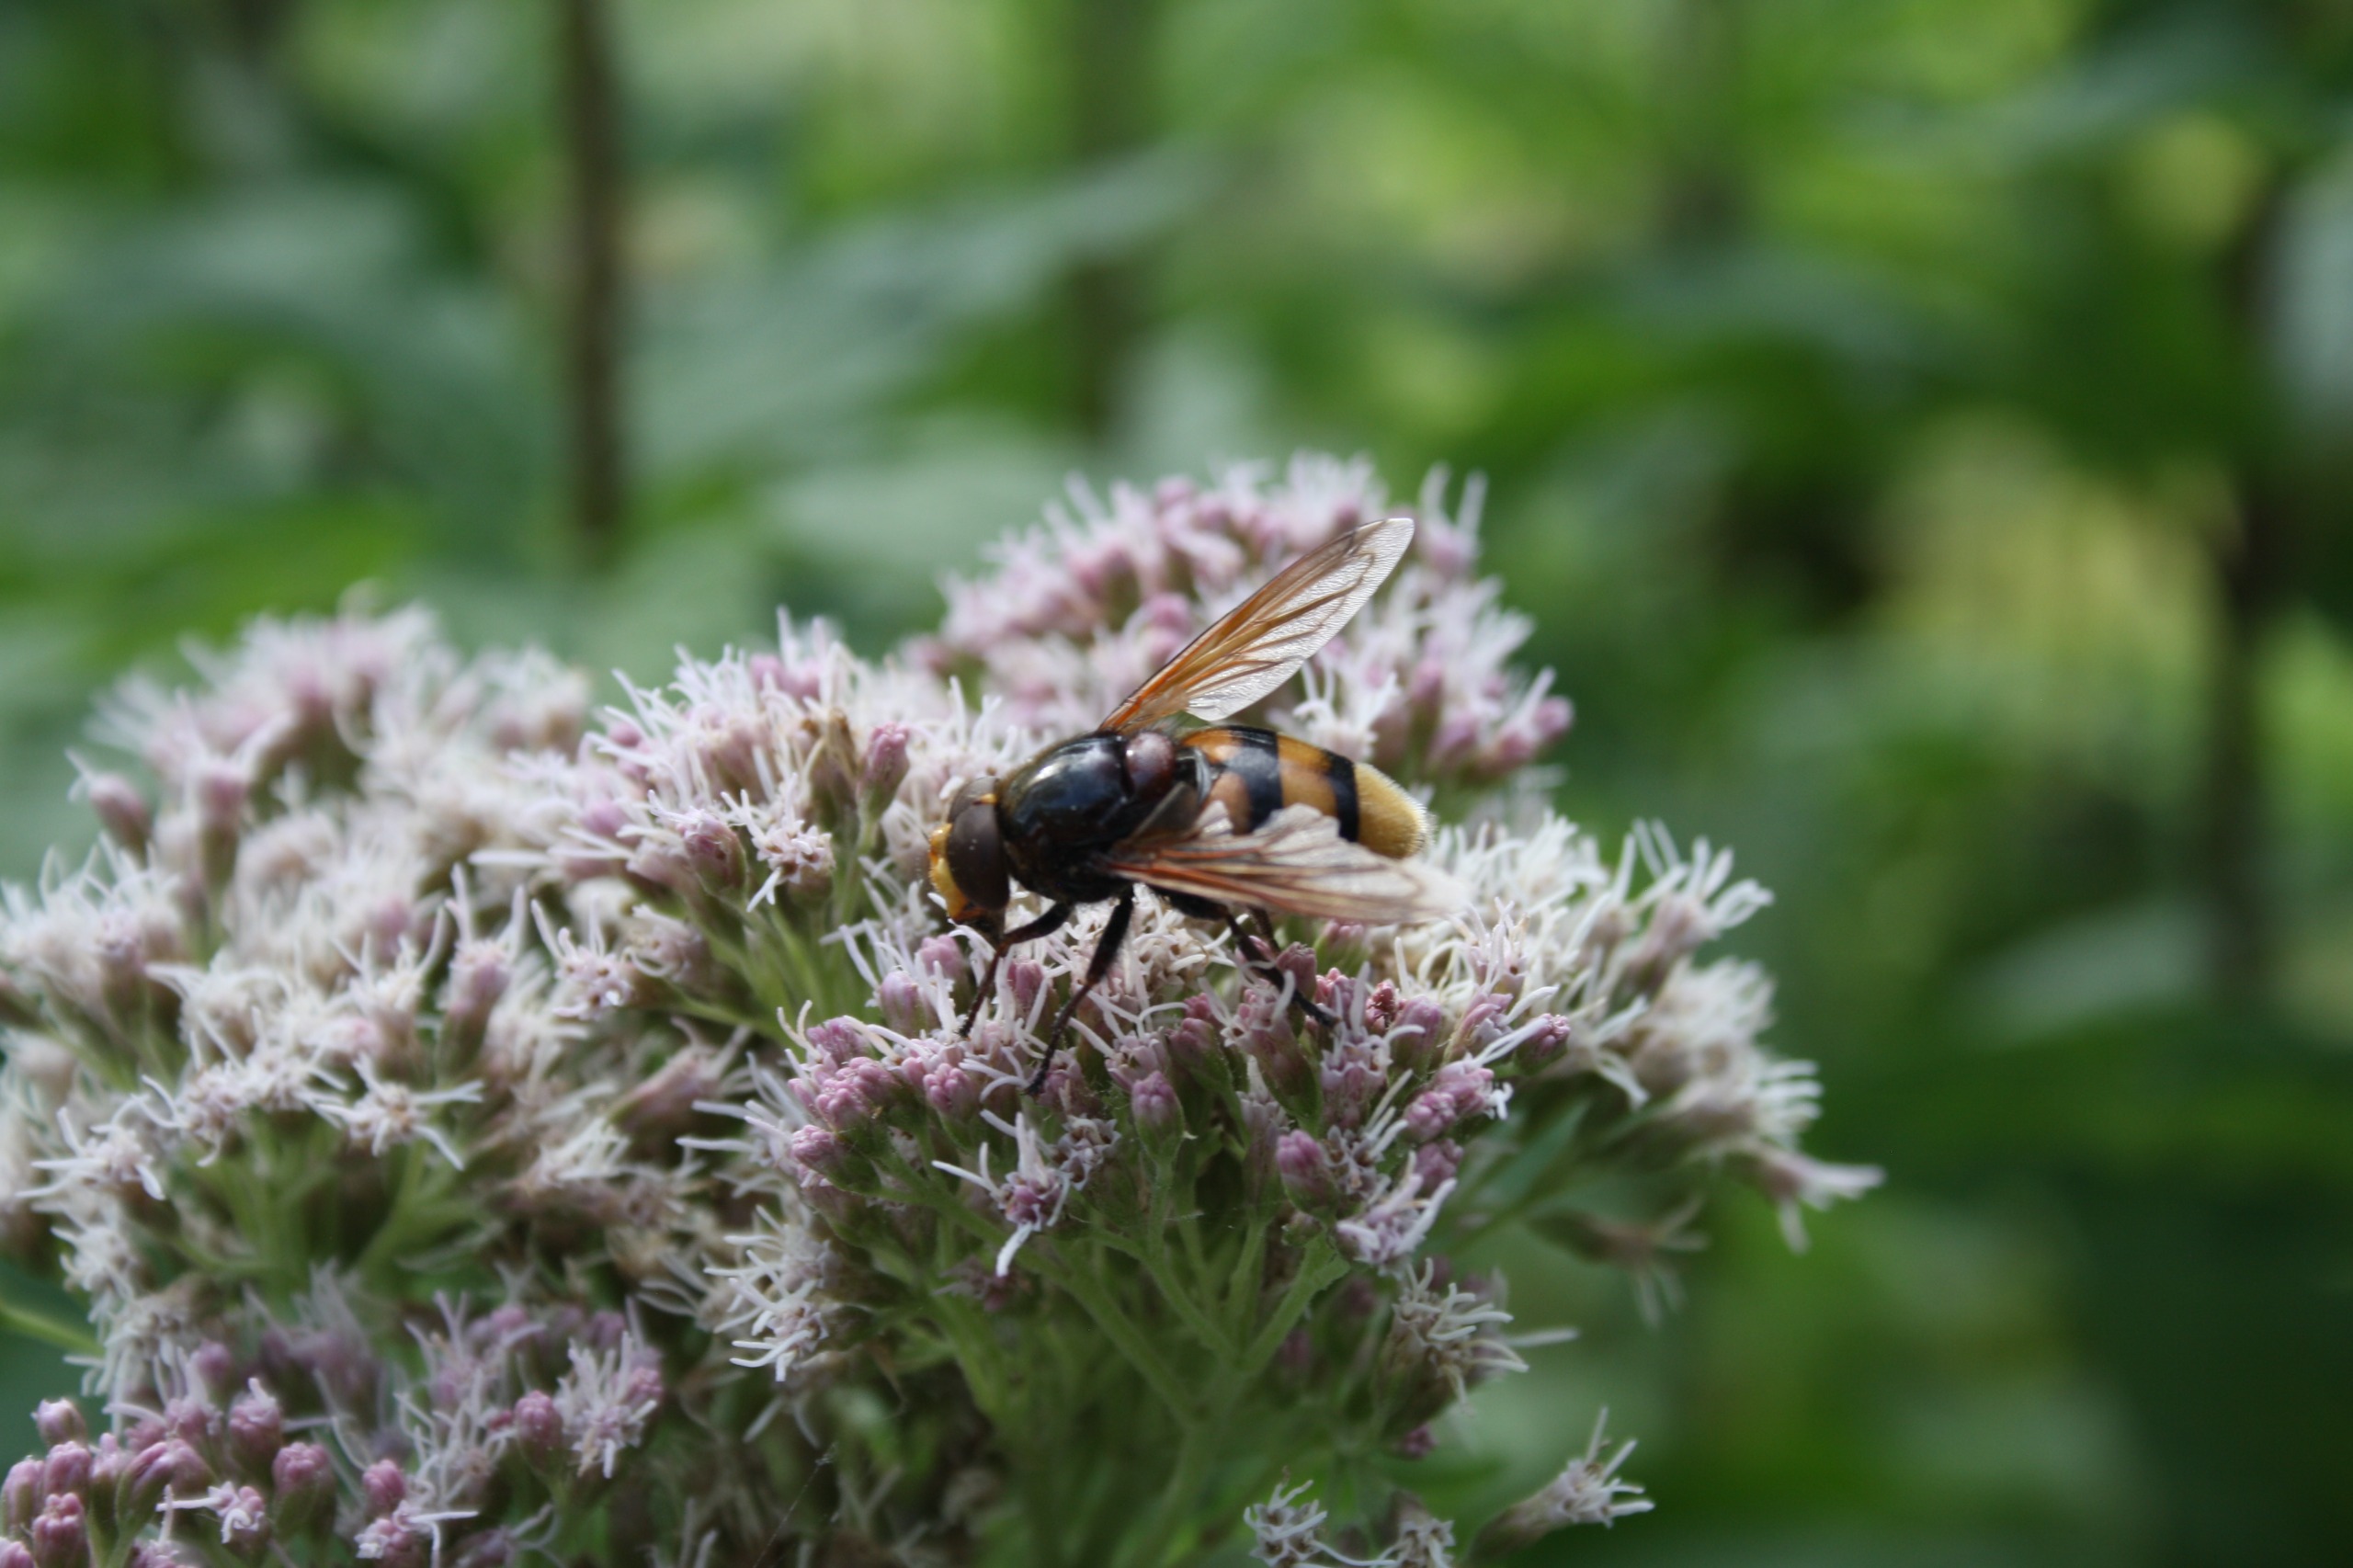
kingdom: Animalia
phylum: Arthropoda
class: Insecta
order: Diptera
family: Syrphidae
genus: Volucella
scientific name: Volucella zonaria
